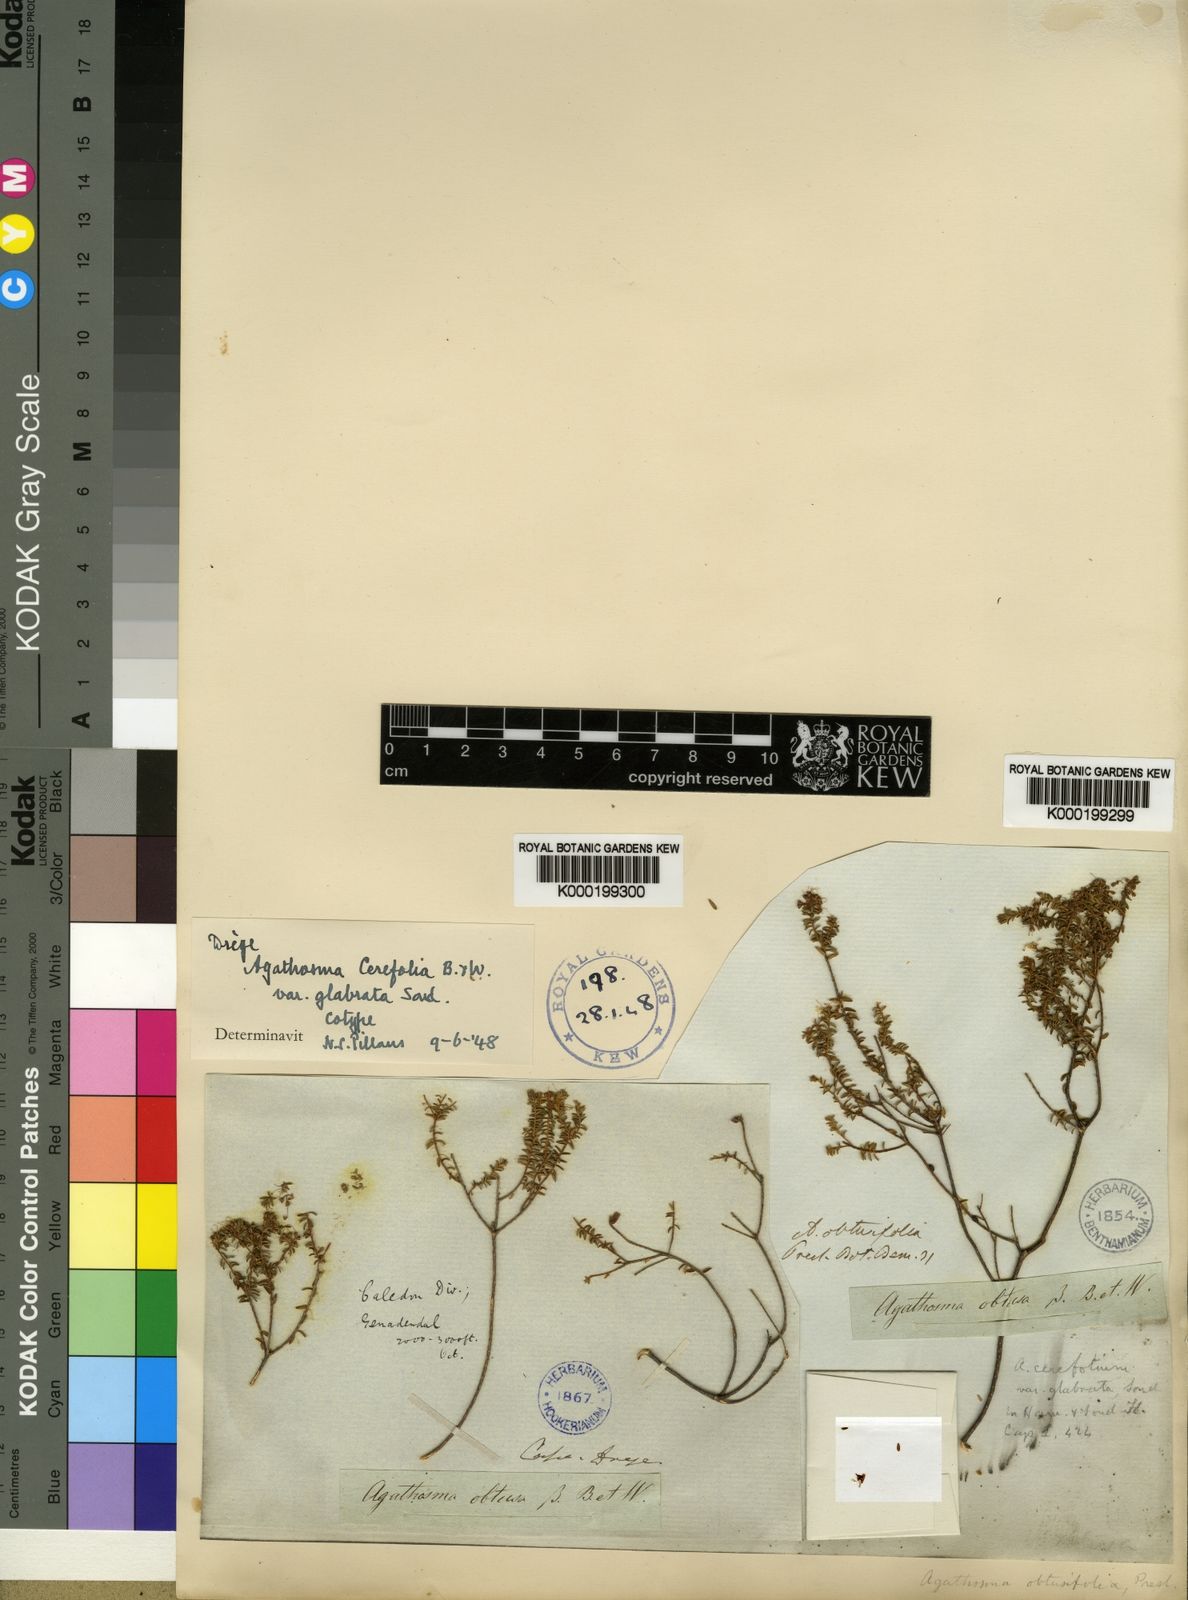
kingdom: Plantae
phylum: Tracheophyta
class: Magnoliopsida
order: Sapindales
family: Rutaceae
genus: Agathosma
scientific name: Agathosma cerefolia
